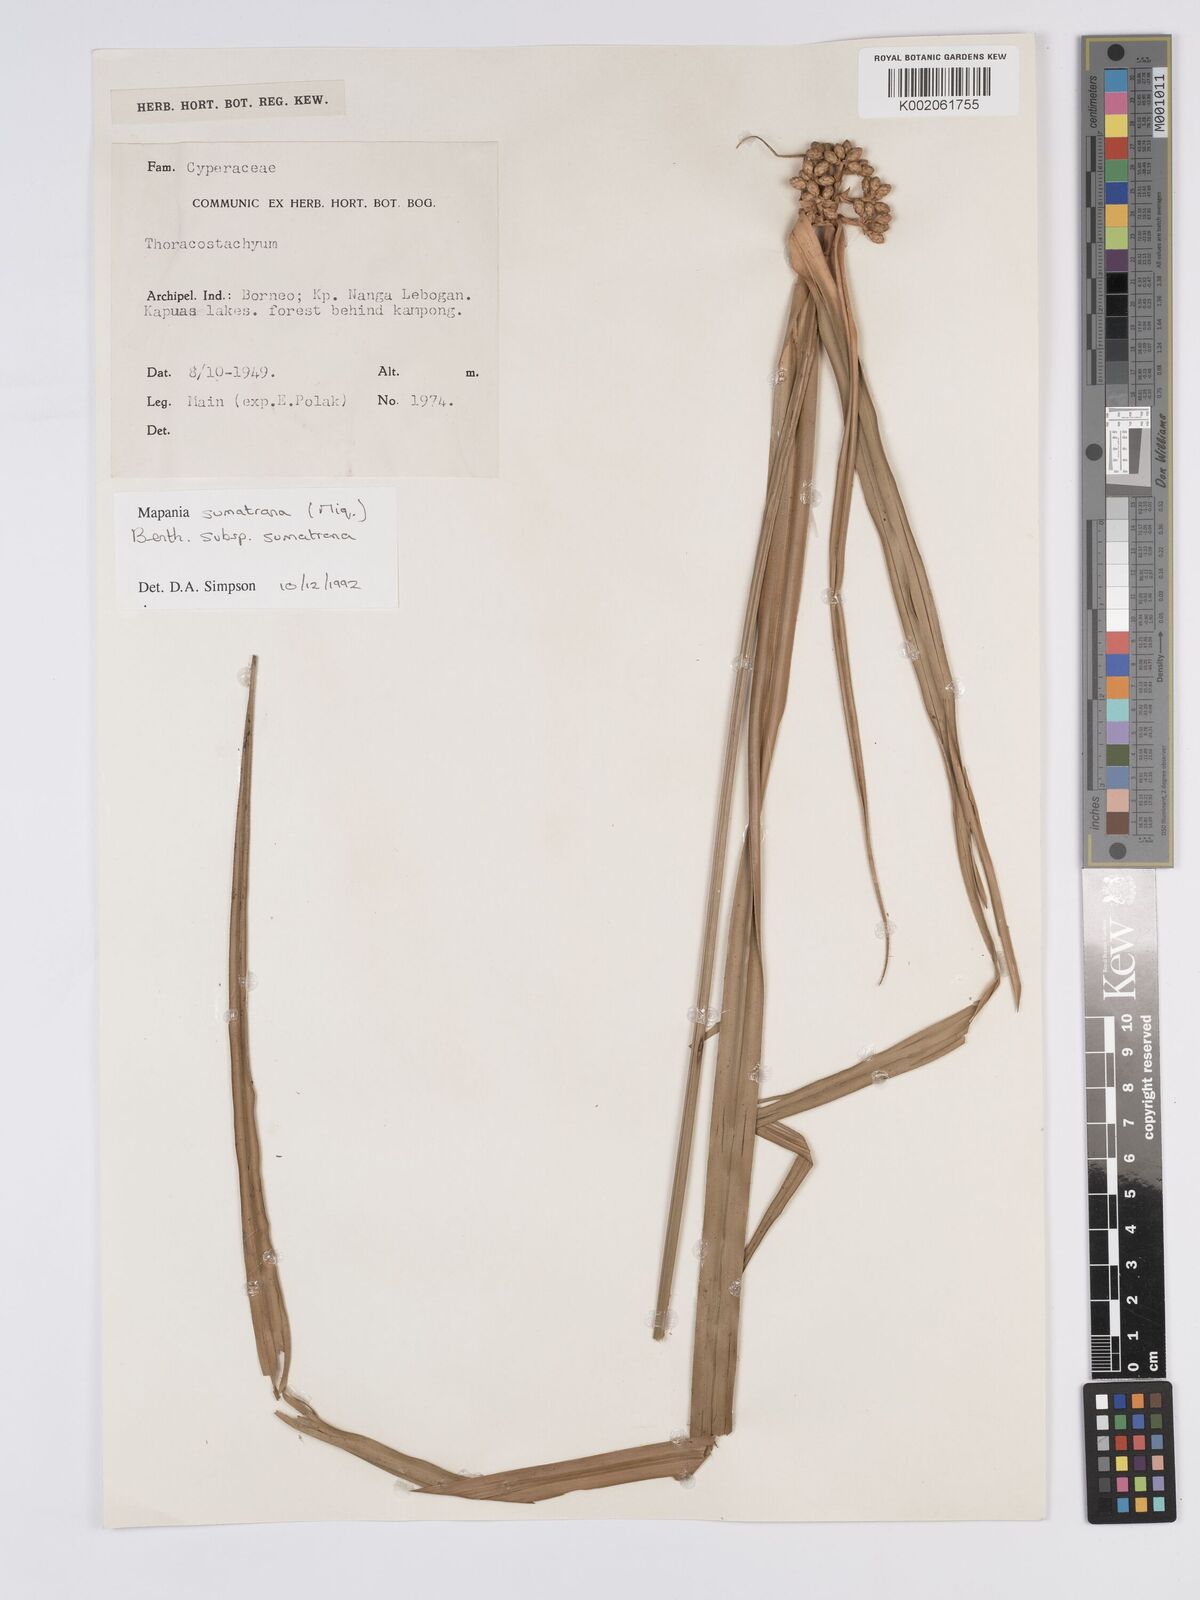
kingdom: Plantae
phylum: Tracheophyta
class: Liliopsida
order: Poales
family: Cyperaceae
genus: Mapania
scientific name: Mapania sumatrana
